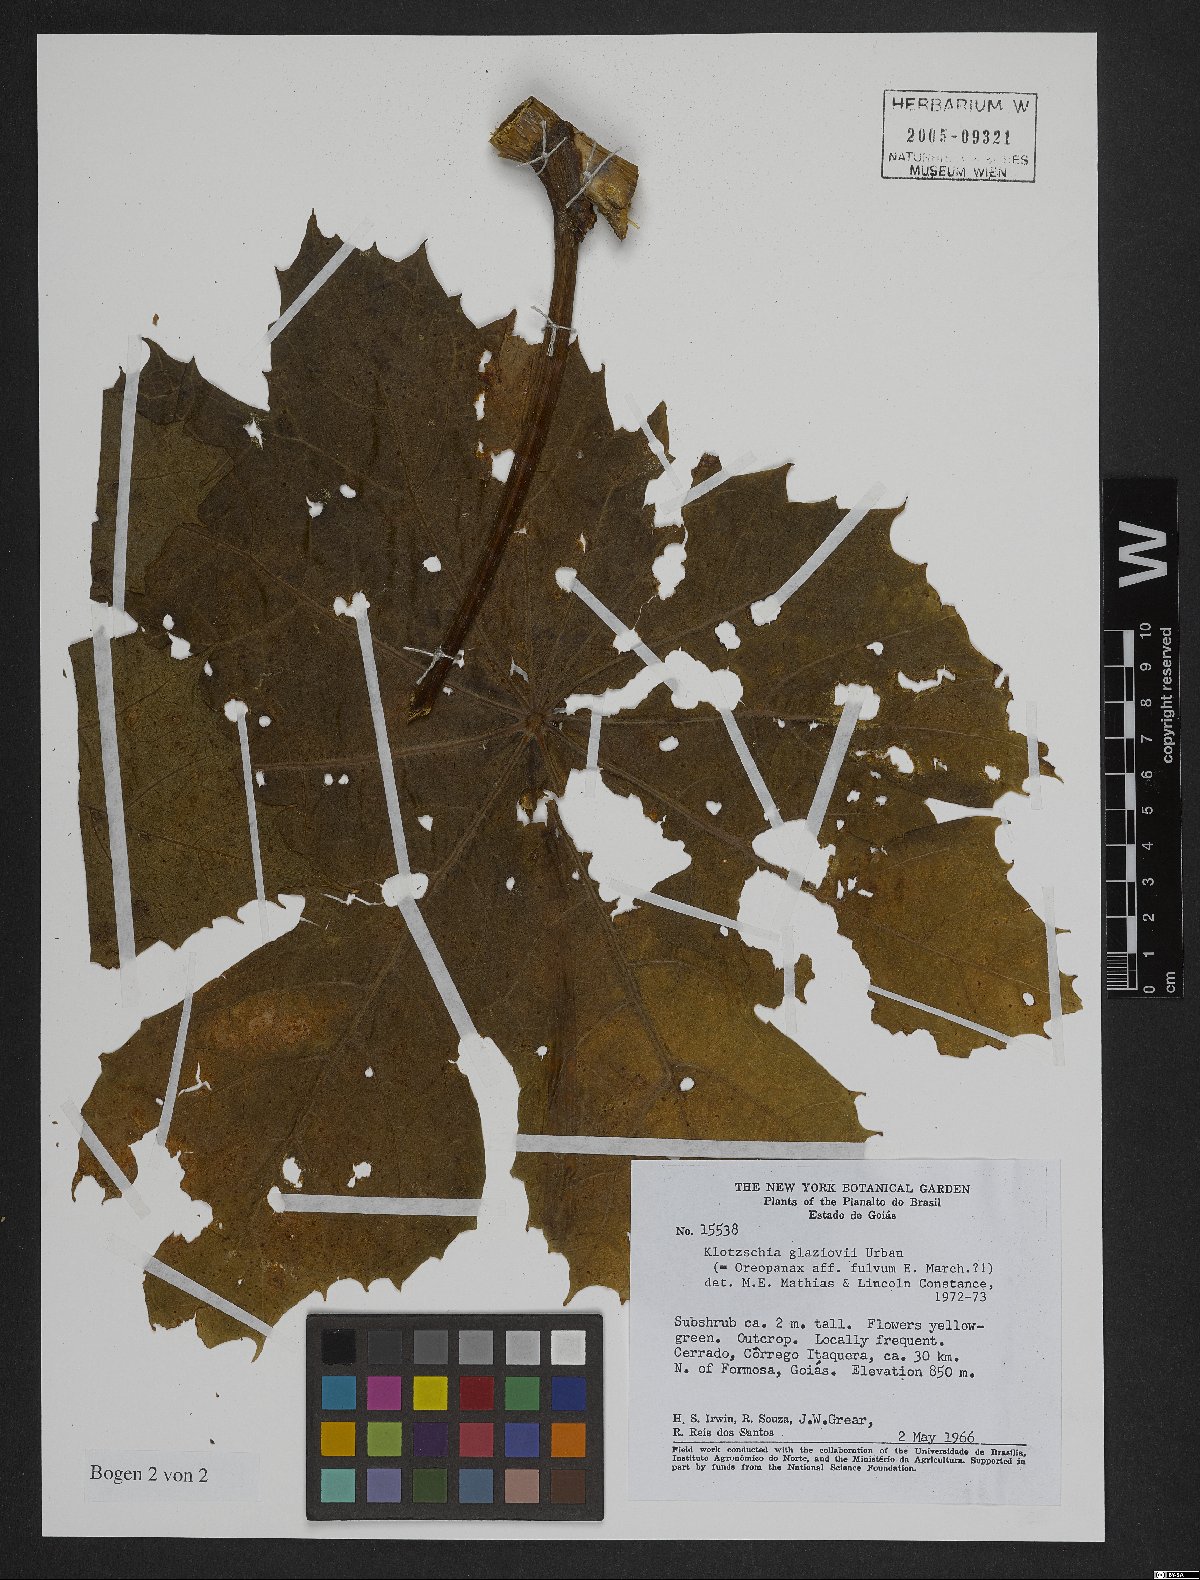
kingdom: Plantae
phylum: Tracheophyta
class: Magnoliopsida
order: Apiales
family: Araliaceae
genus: Oreopanax
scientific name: Oreopanax fulvus
